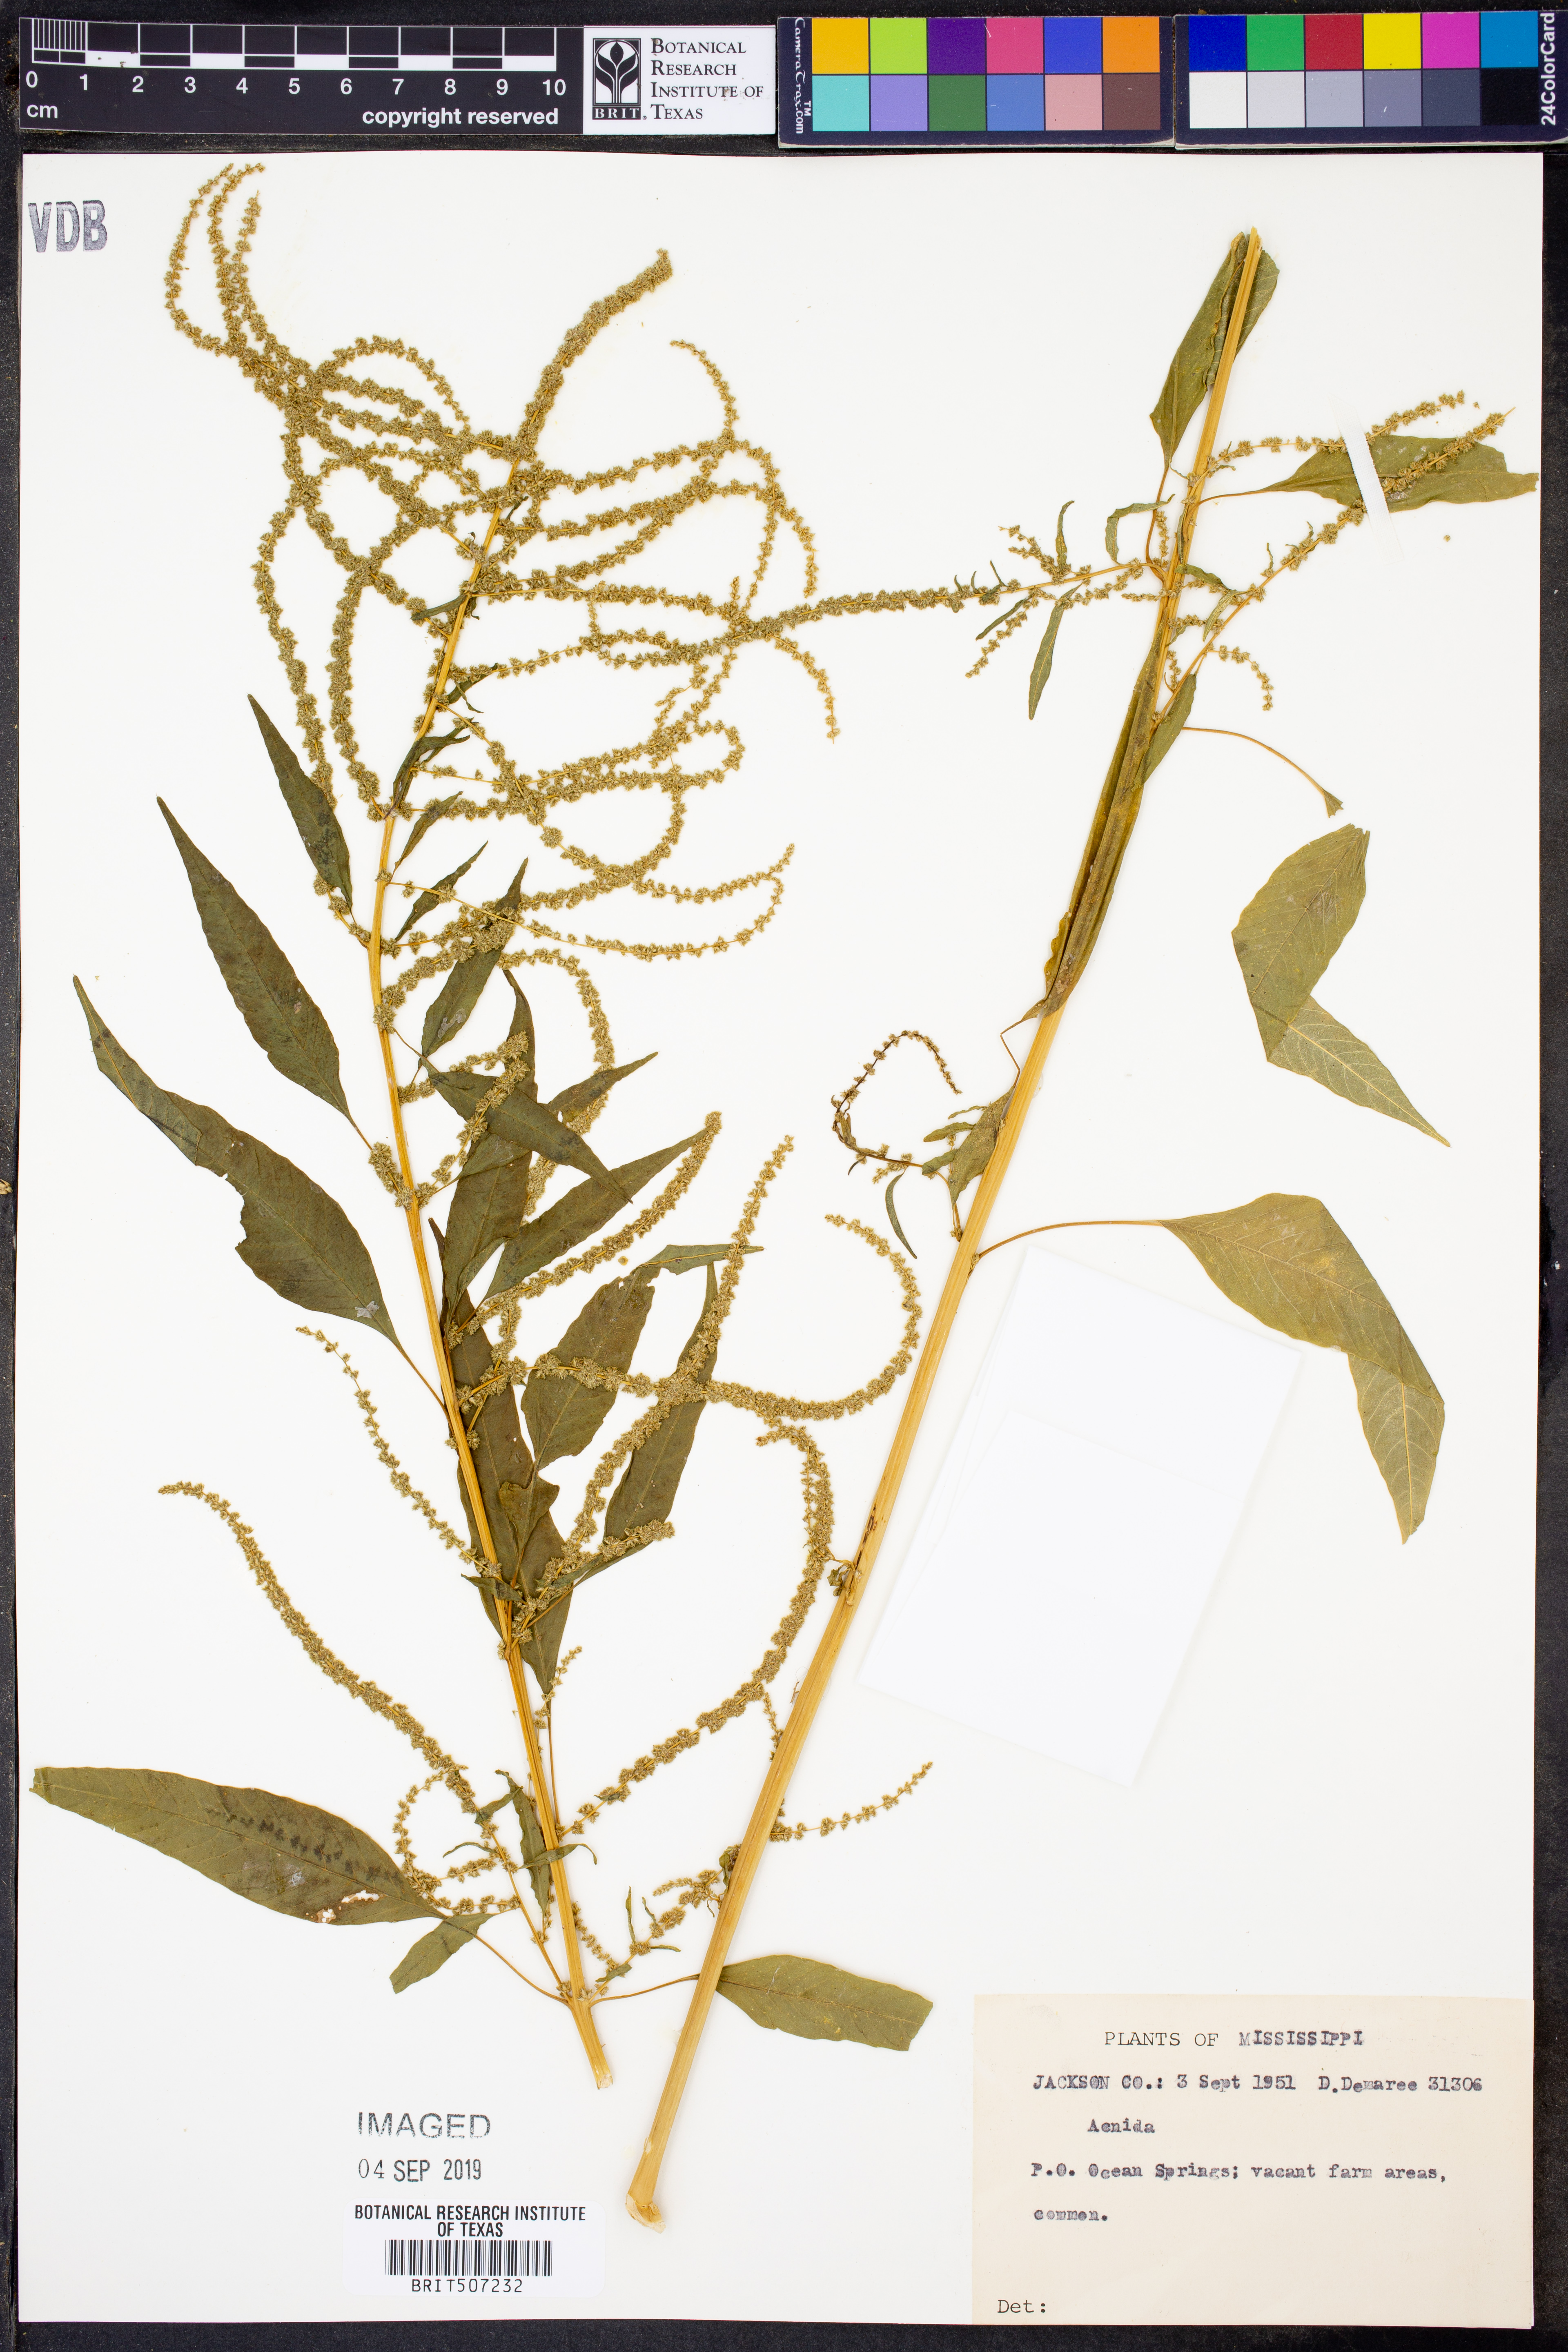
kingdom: Plantae
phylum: Tracheophyta
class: Magnoliopsida
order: Caryophyllales
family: Amaranthaceae
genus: Amaranthus
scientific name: Amaranthus Acnida spec
